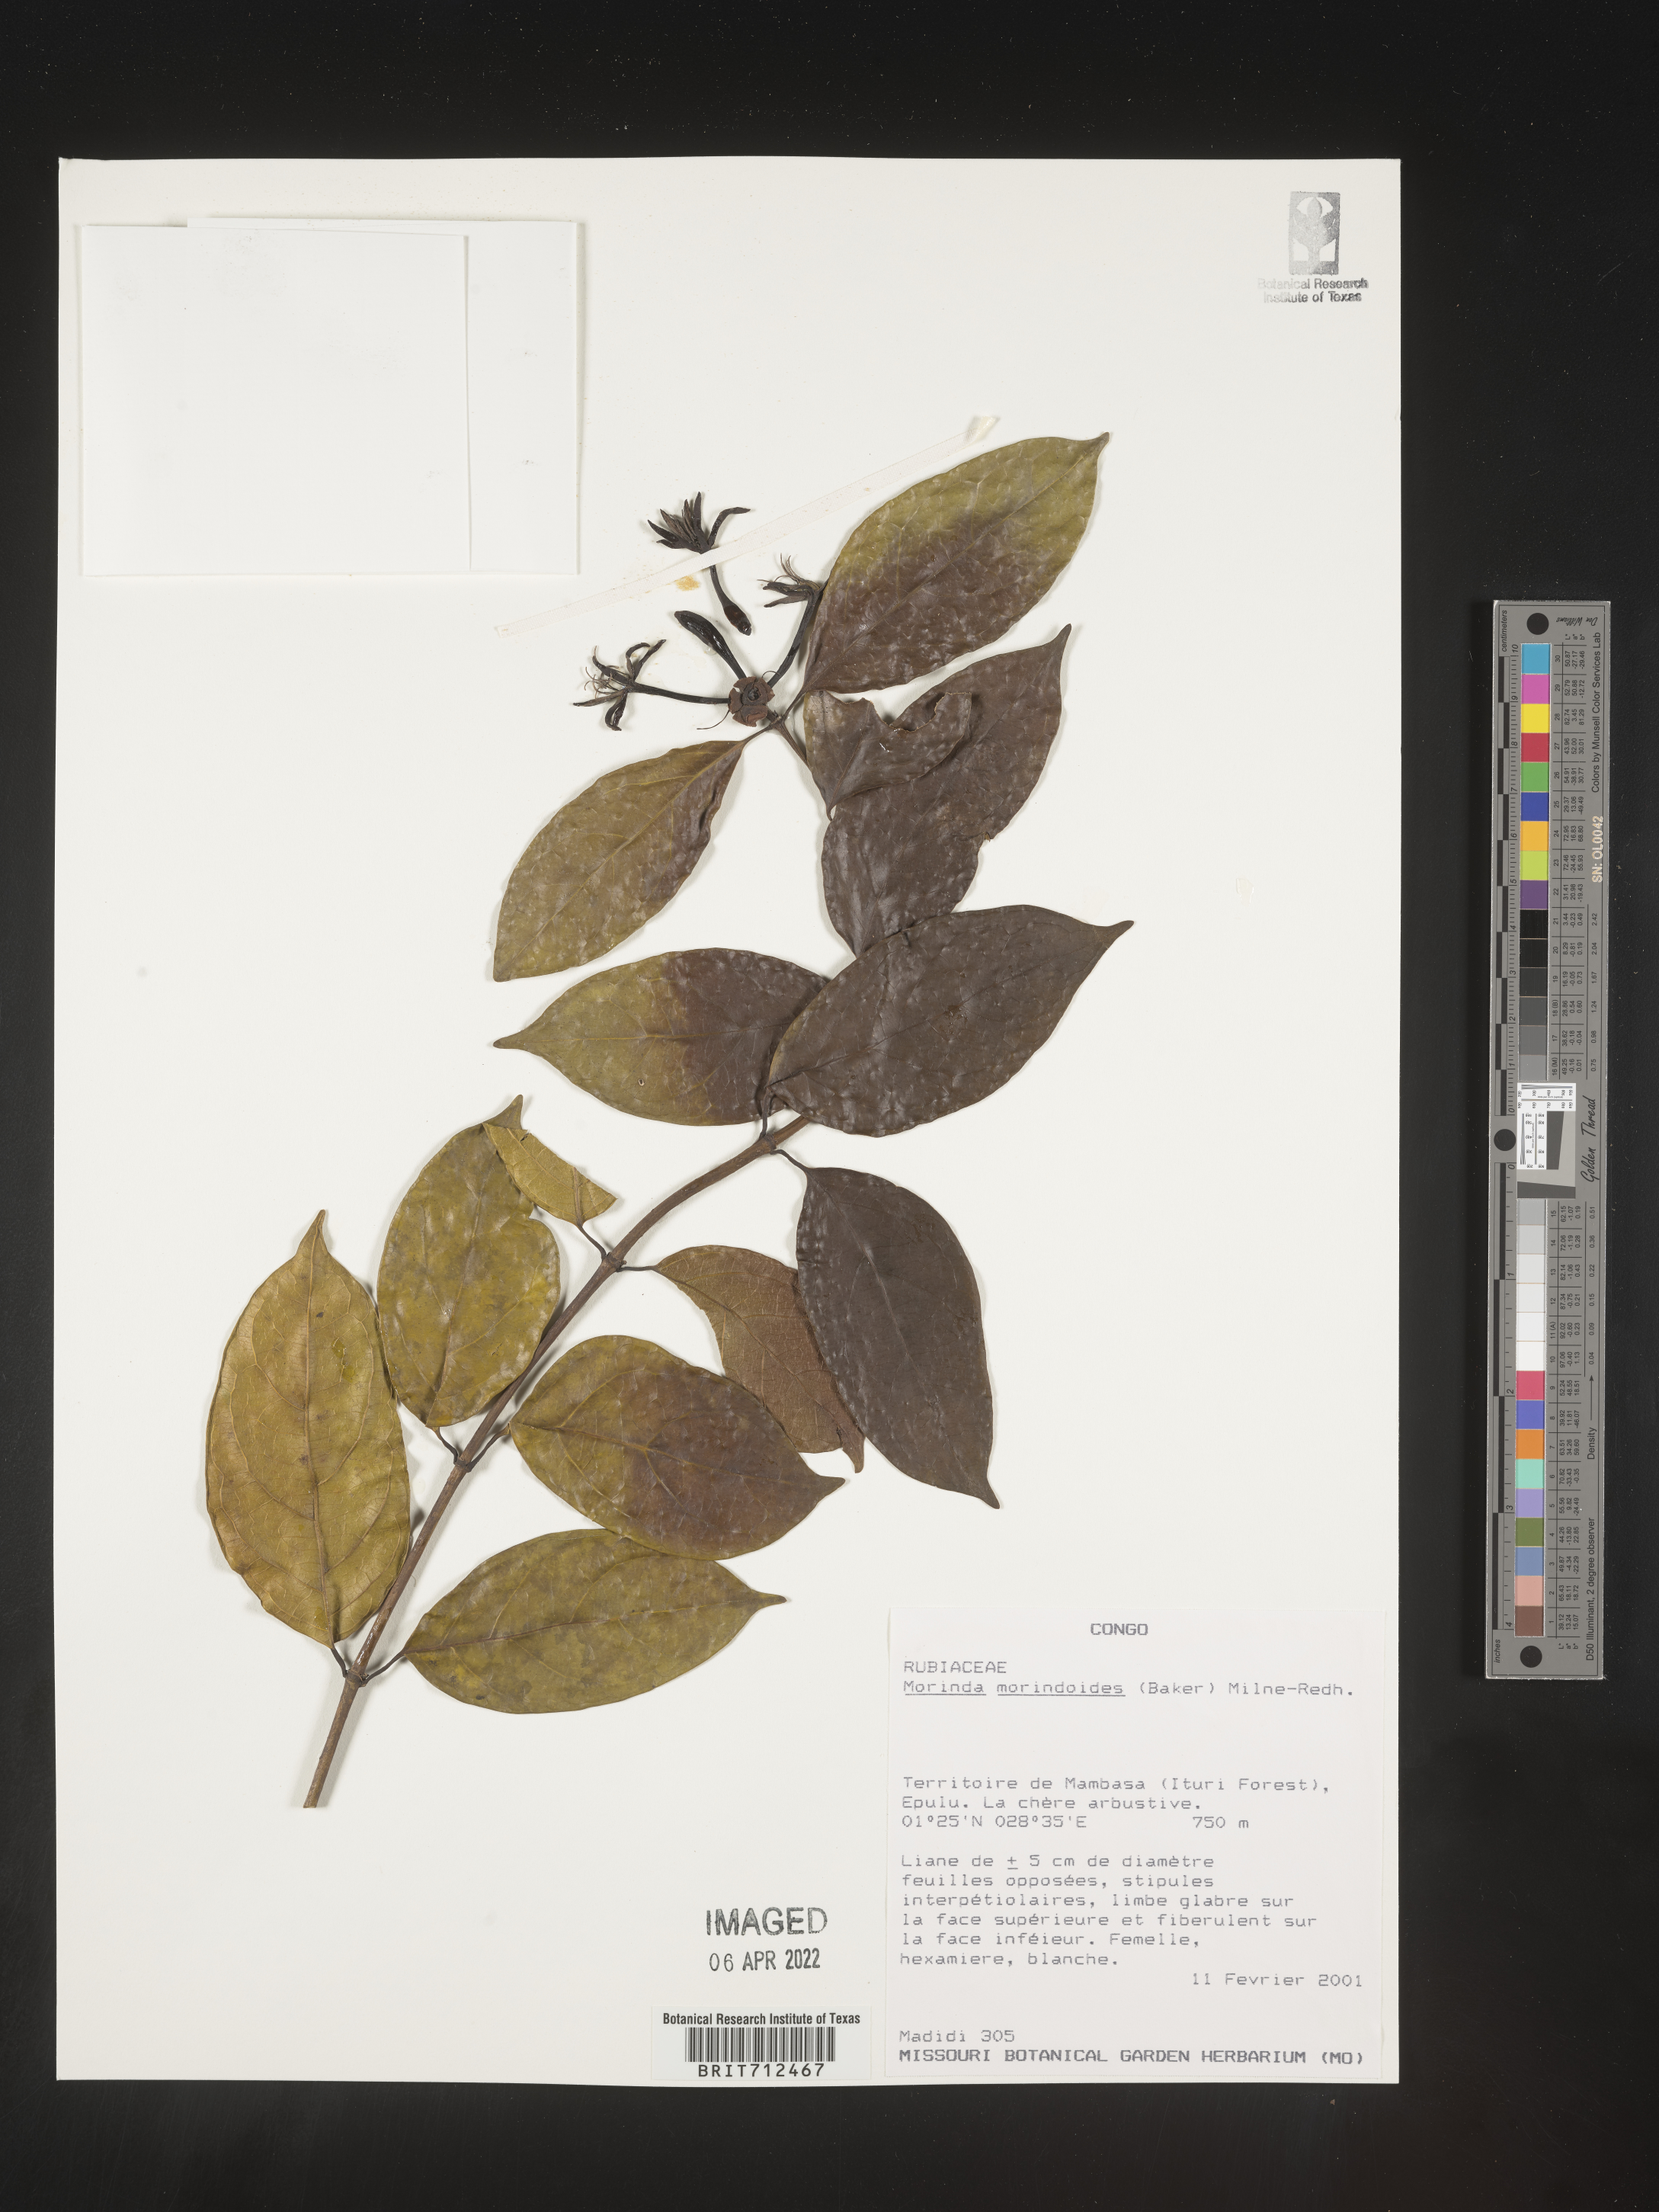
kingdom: Plantae
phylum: Tracheophyta
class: Magnoliopsida
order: Gentianales
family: Rubiaceae
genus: Morinda
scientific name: Morinda
